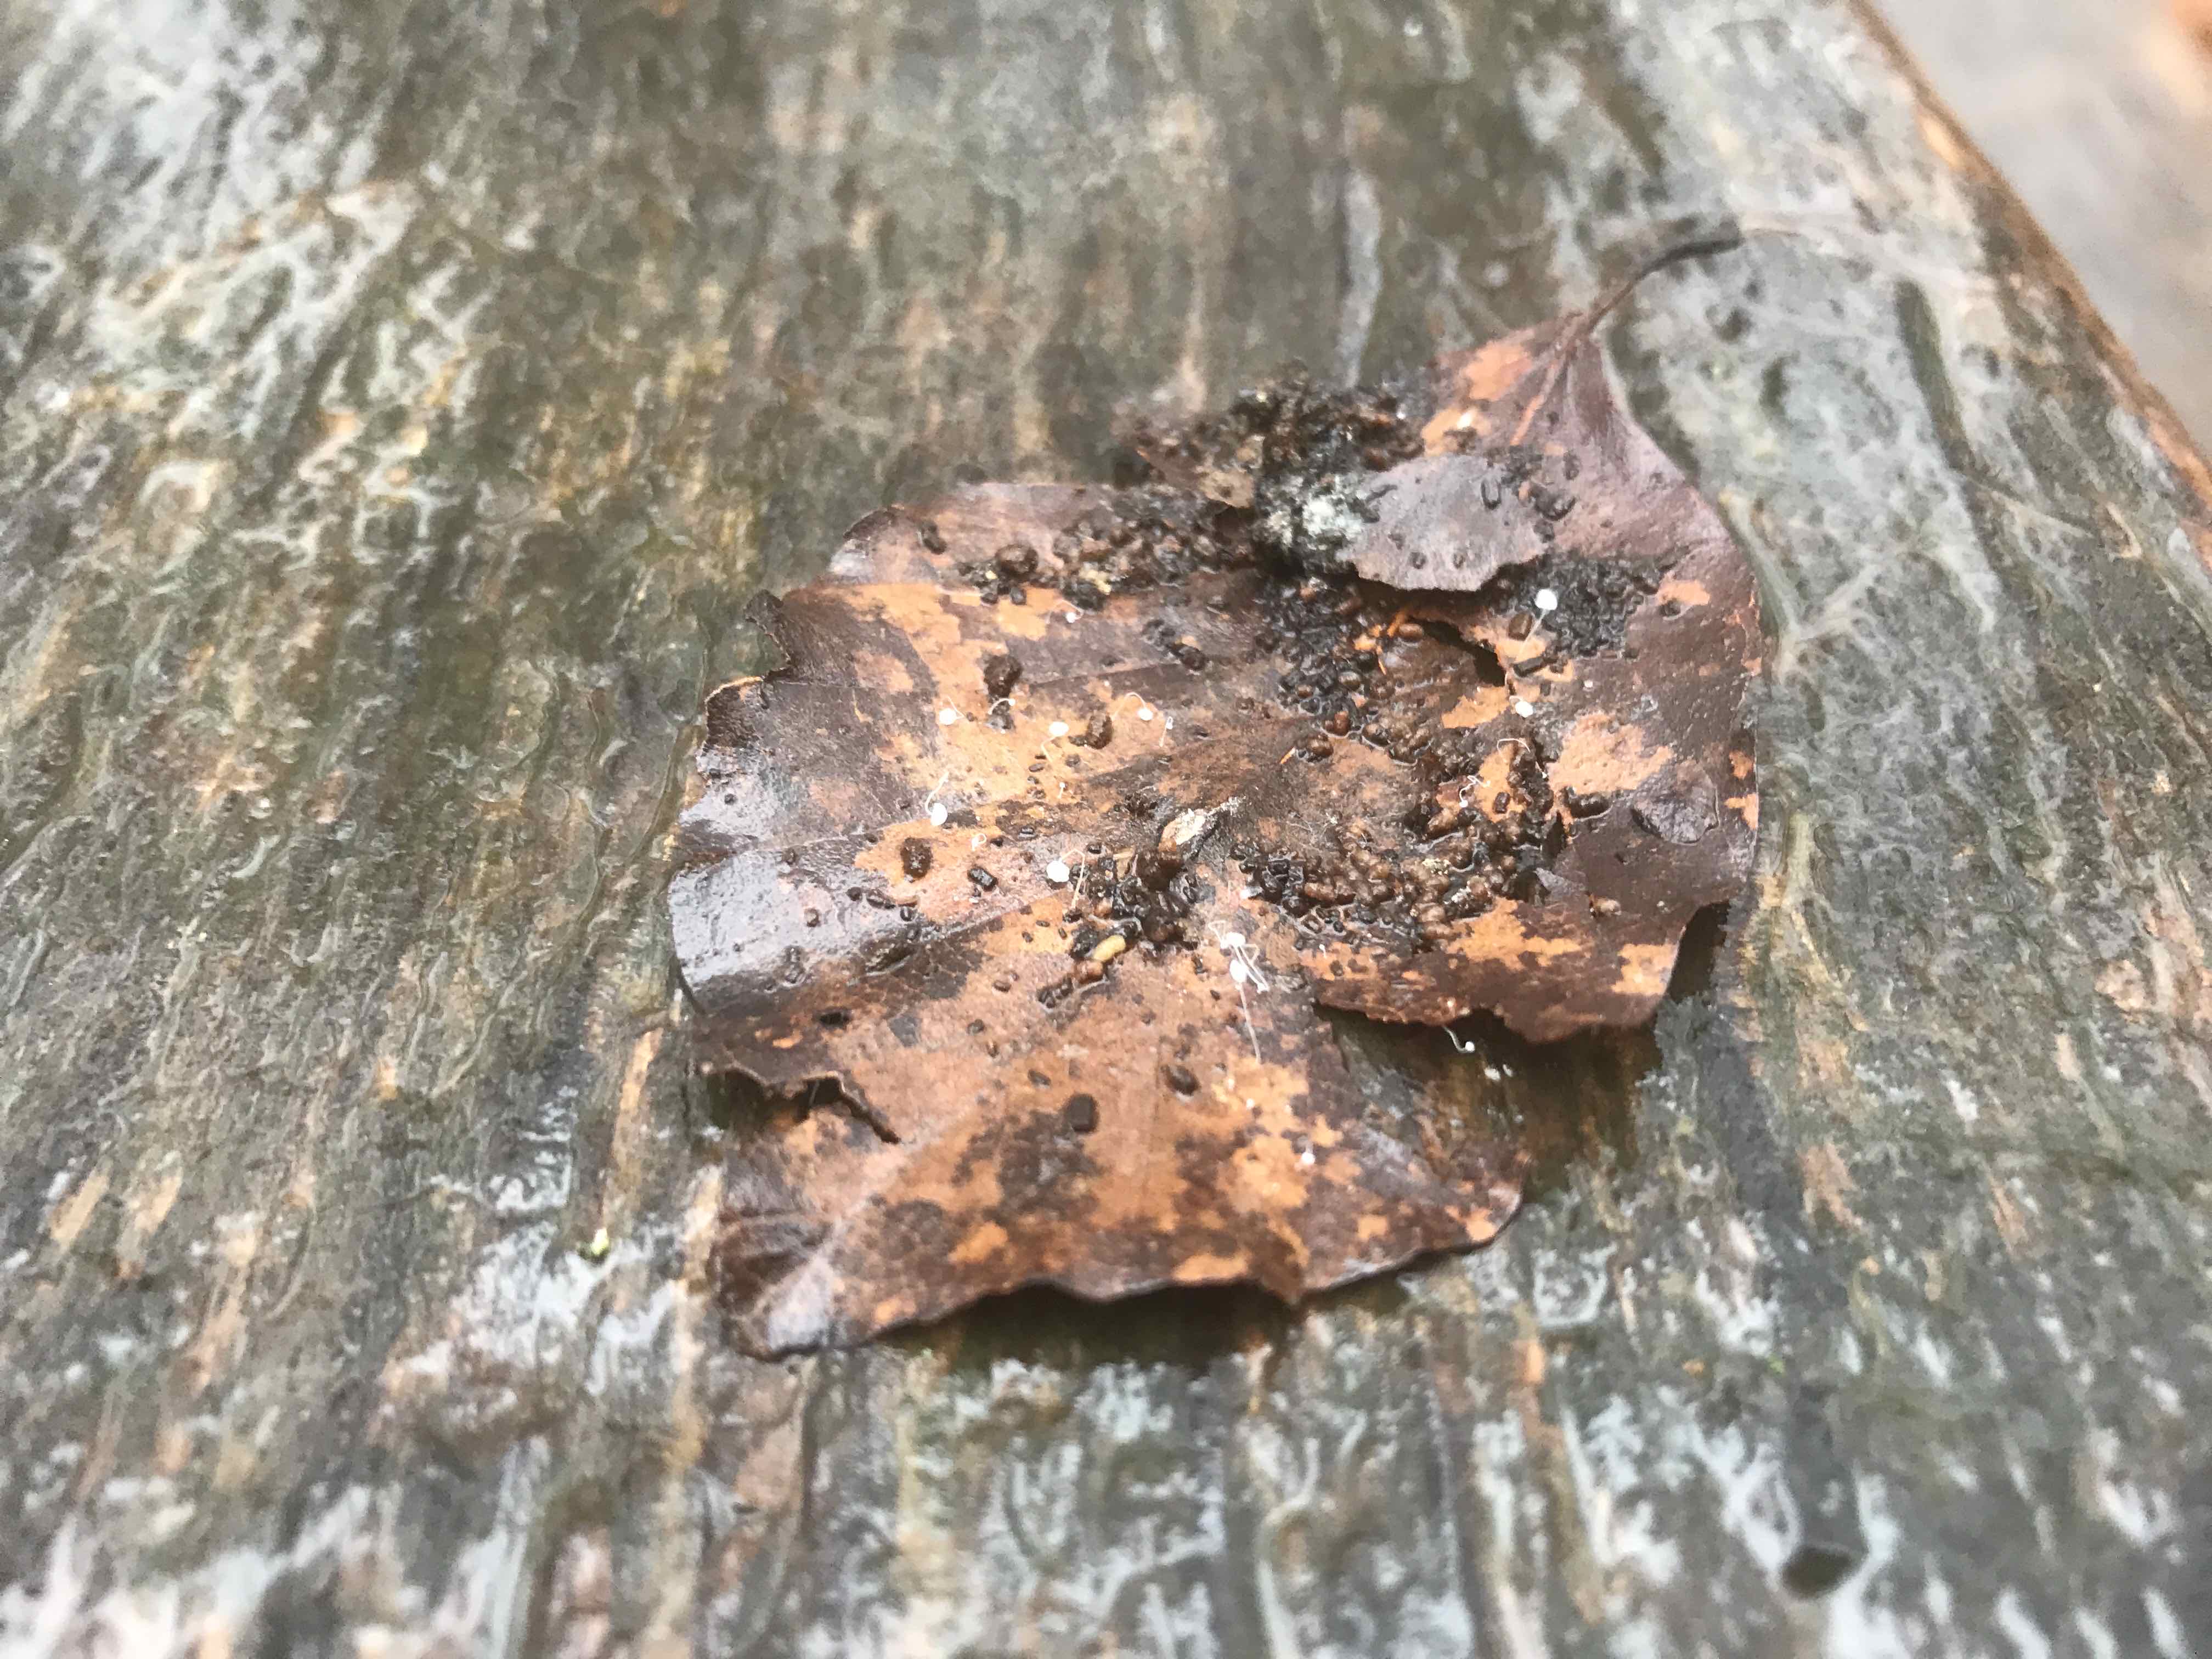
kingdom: Fungi
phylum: Basidiomycota
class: Agaricomycetes
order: Agaricales
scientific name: Agaricales
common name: champignonordenen
